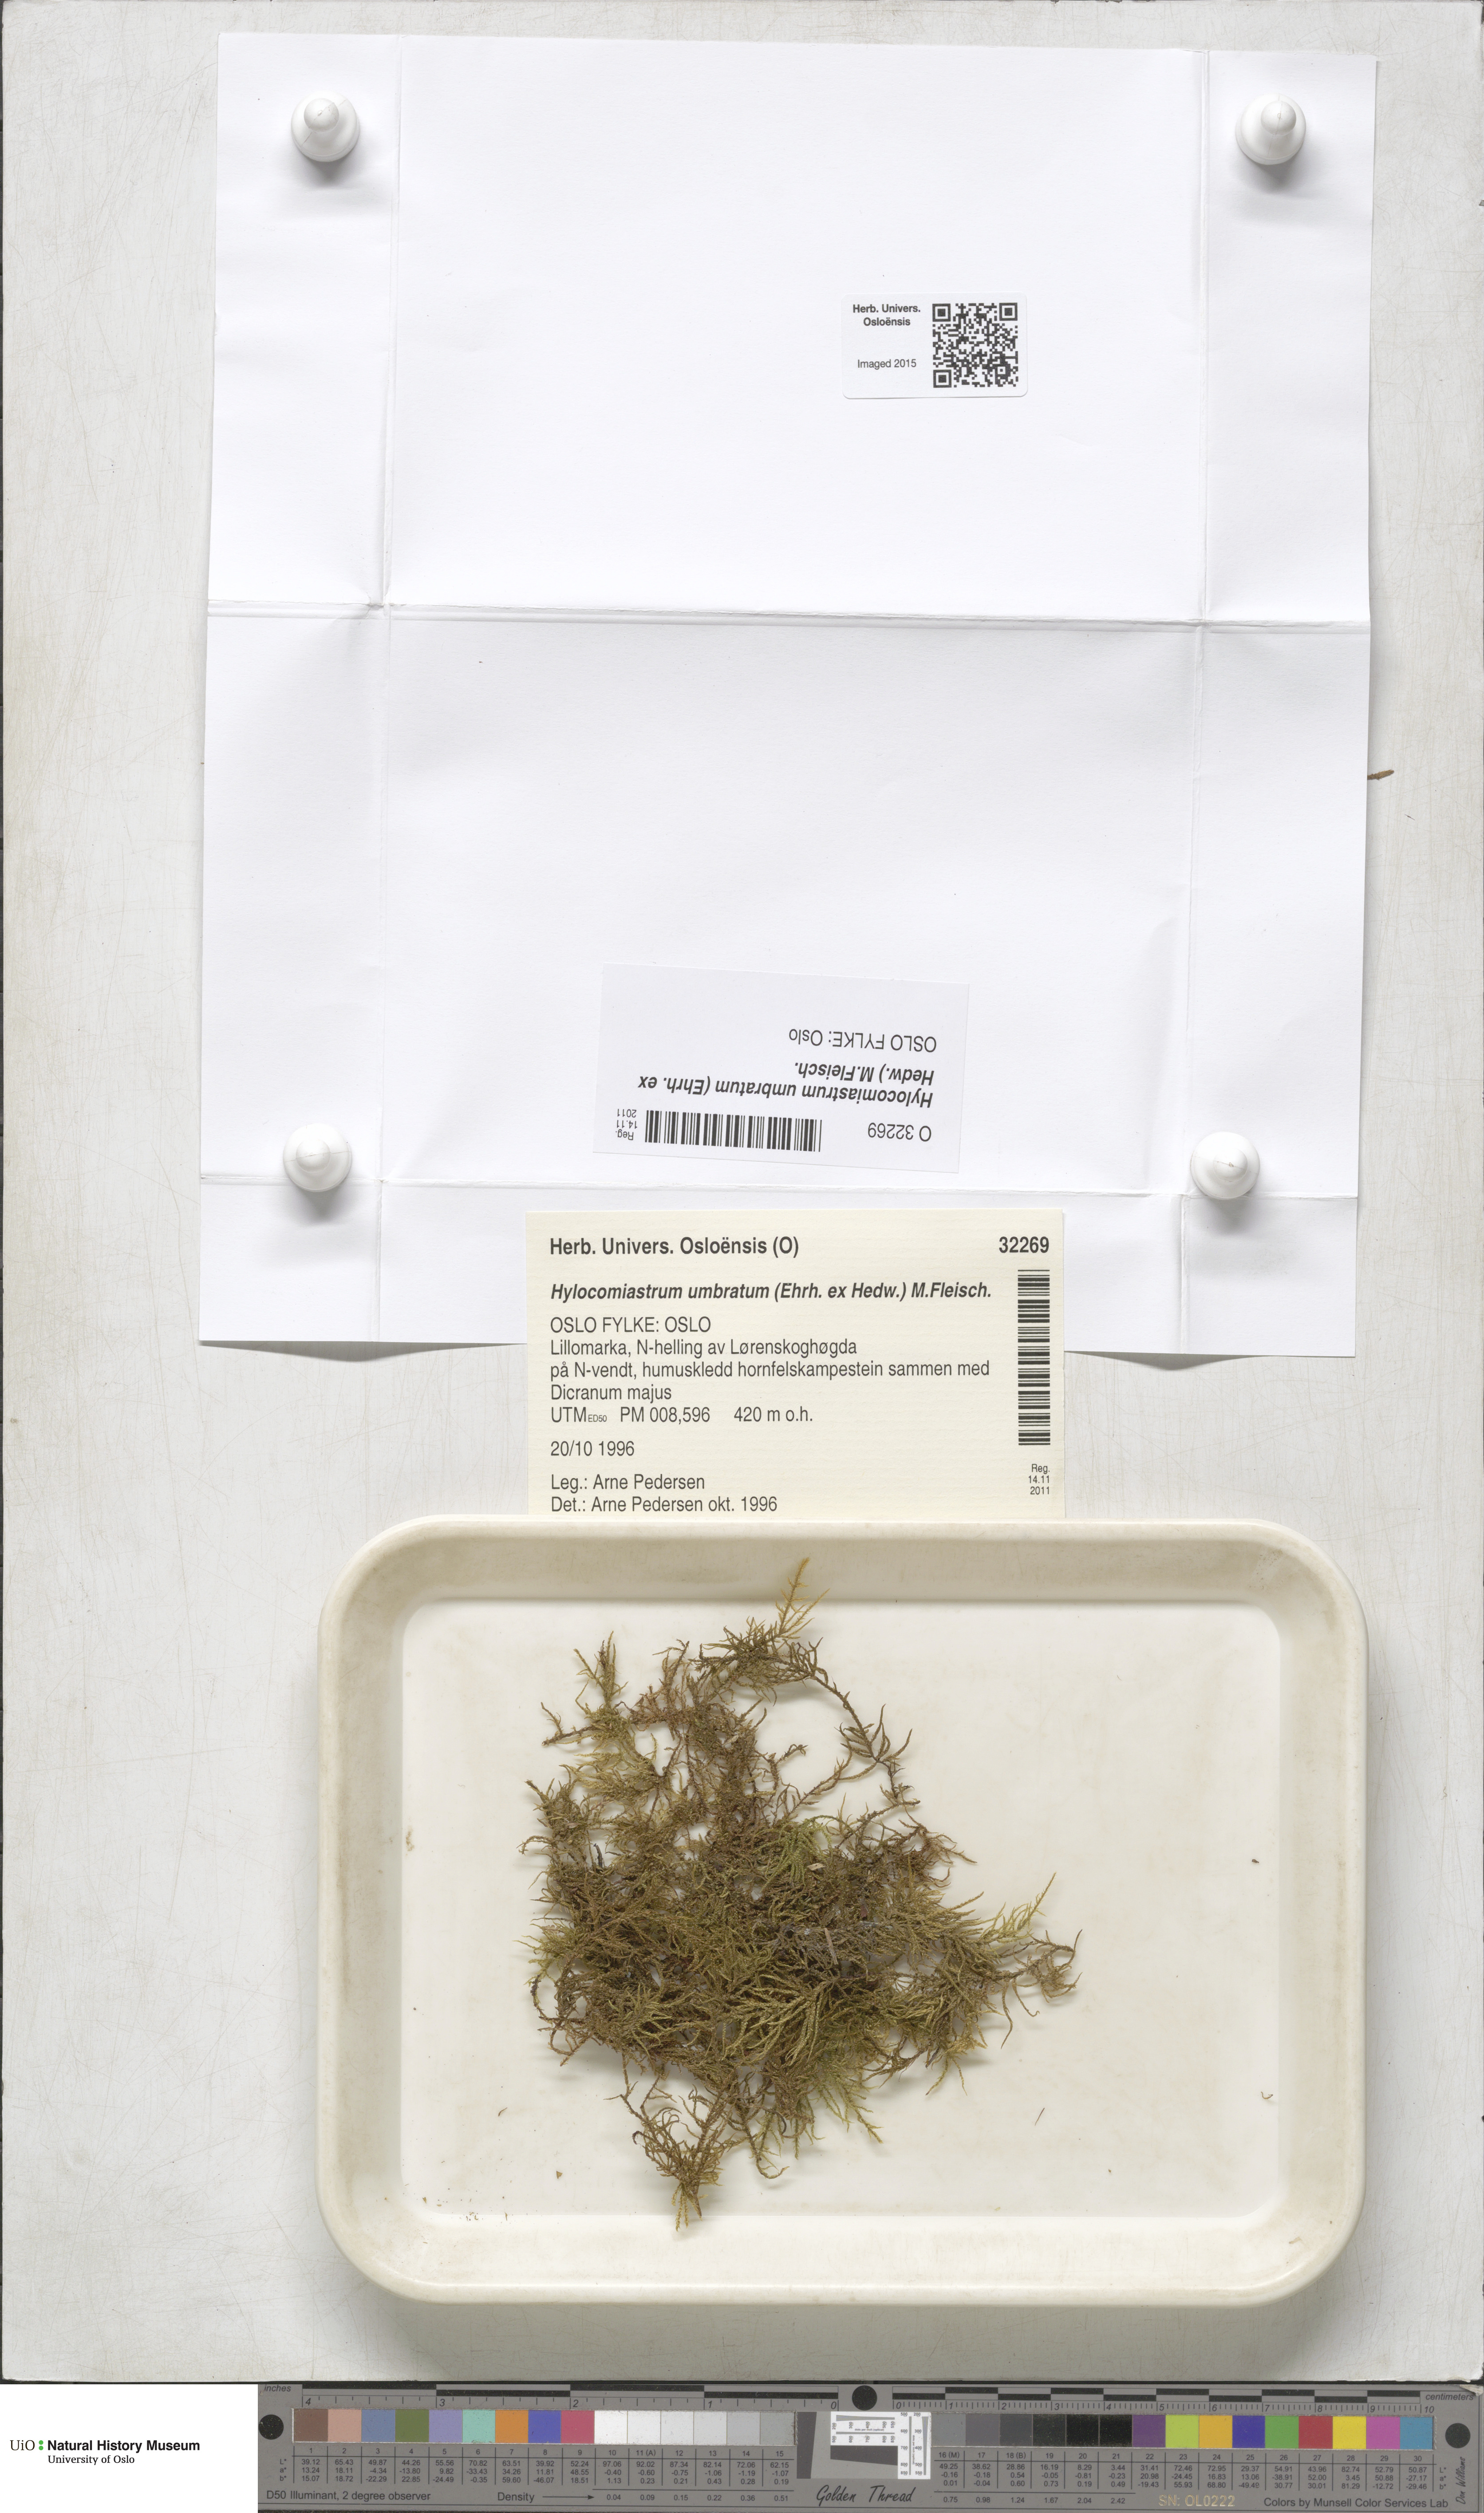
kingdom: Plantae
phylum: Bryophyta
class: Bryopsida
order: Hypnales
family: Hylocomiaceae
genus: Hylocomiastrum
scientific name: Hylocomiastrum umbratum
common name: Shaded woods moss
